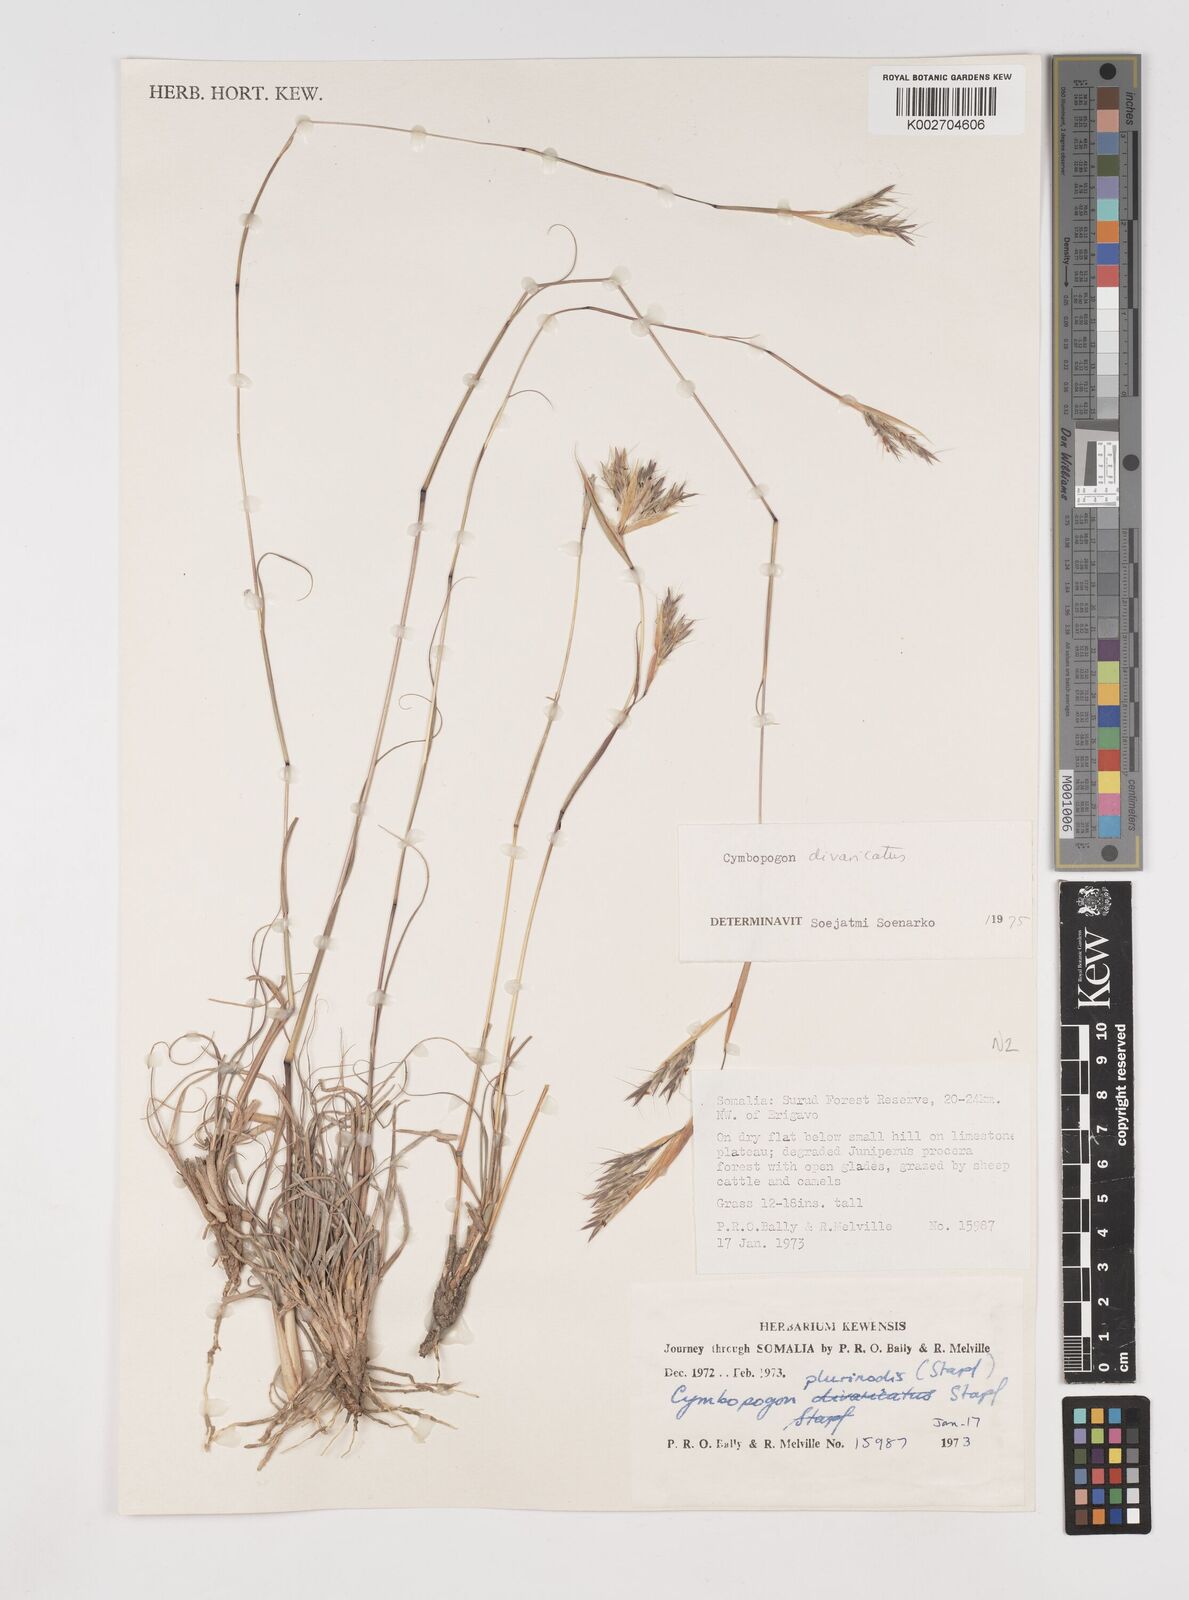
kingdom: Plantae
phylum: Tracheophyta
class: Liliopsida
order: Poales
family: Poaceae
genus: Cymbopogon
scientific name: Cymbopogon commutatus
